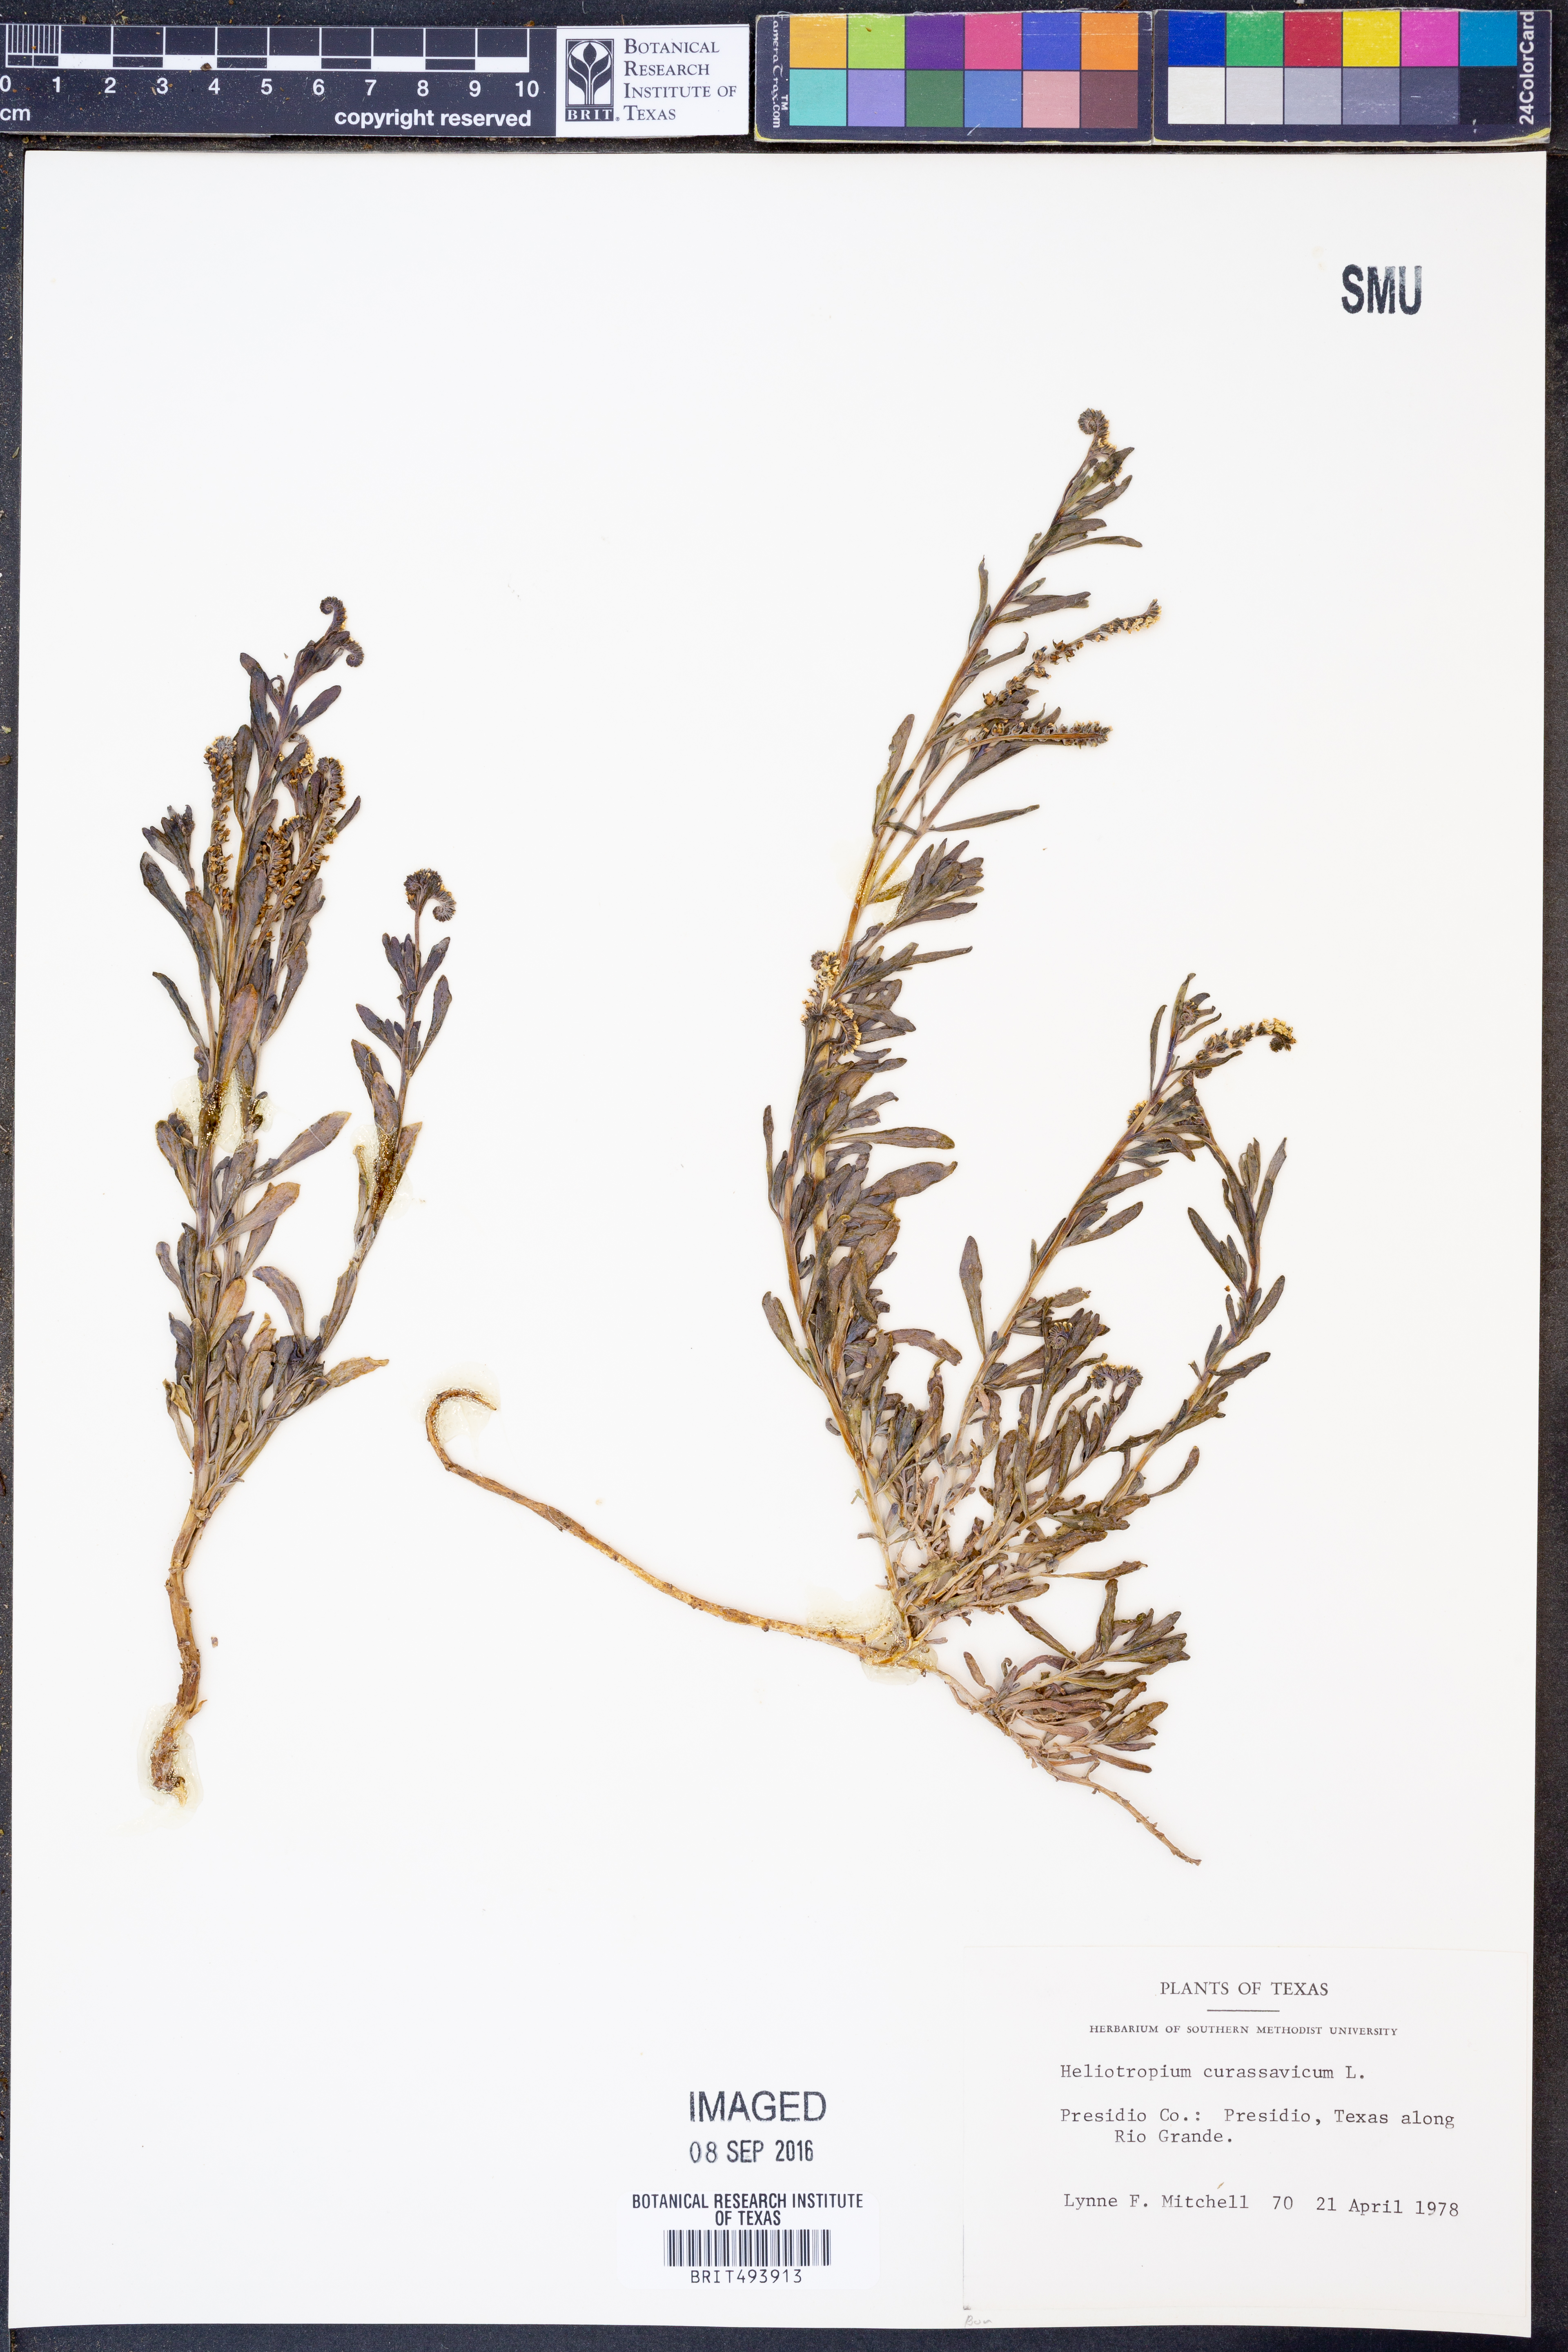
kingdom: Plantae
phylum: Tracheophyta
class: Magnoliopsida
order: Boraginales
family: Heliotropiaceae
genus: Heliotropium
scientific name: Heliotropium curassavicum
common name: Seaside heliotrope
